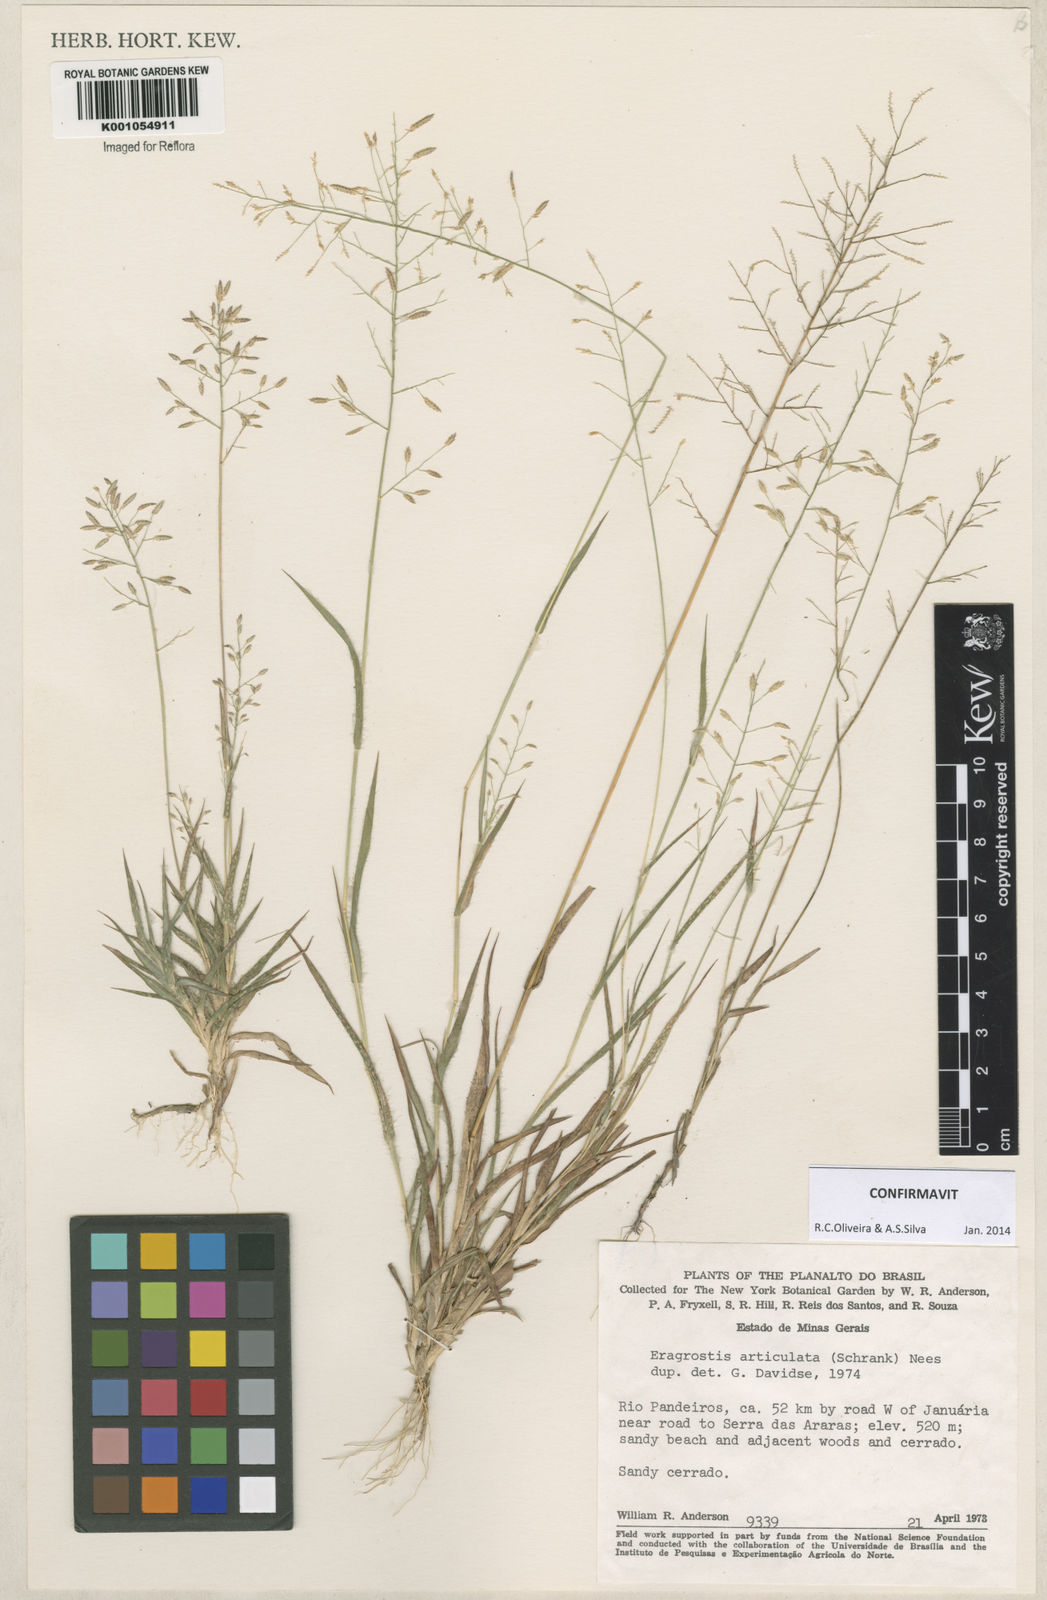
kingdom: Plantae
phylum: Tracheophyta
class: Liliopsida
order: Poales
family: Poaceae
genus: Eragrostis
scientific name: Eragrostis articulata
